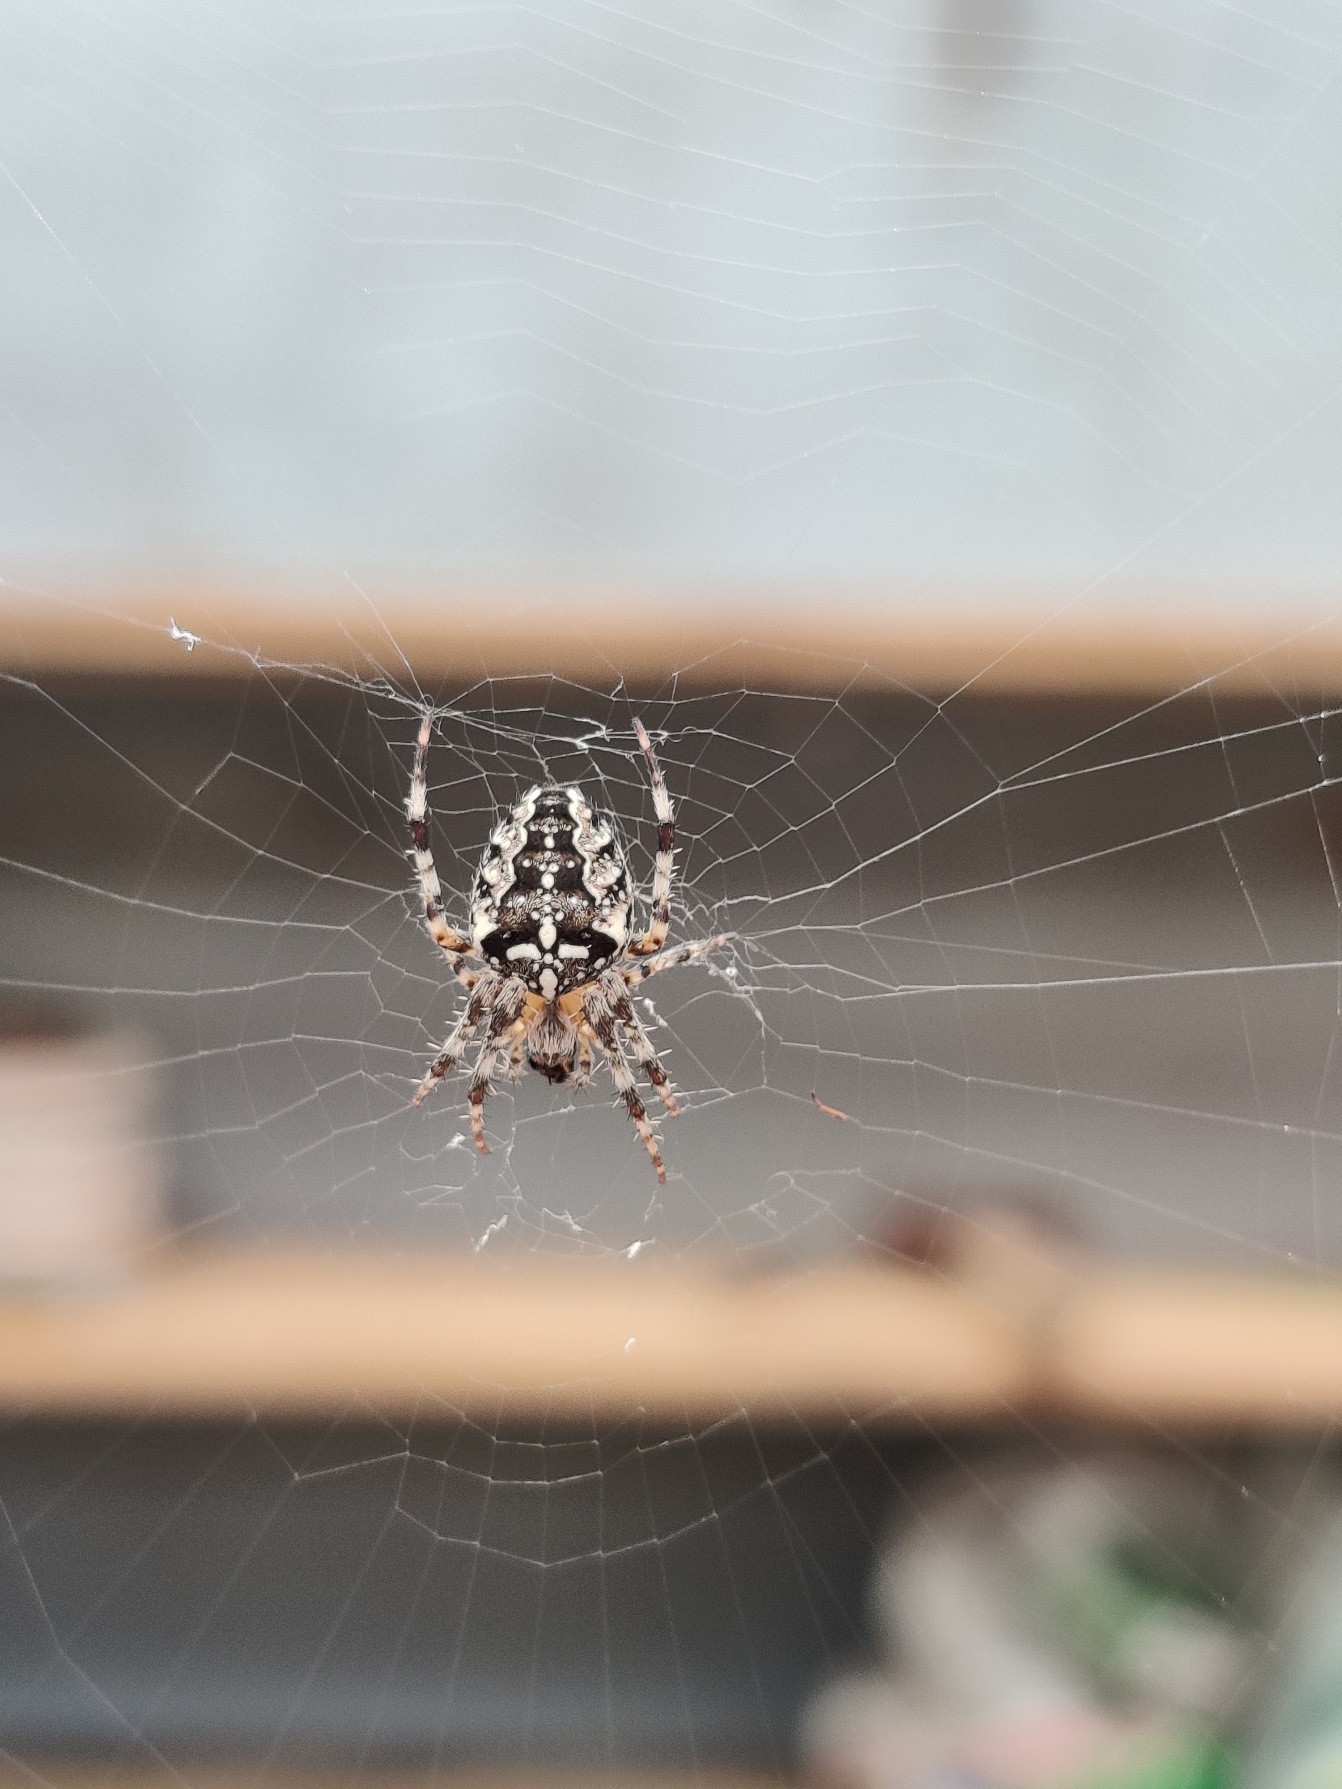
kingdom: Animalia
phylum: Arthropoda
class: Arachnida
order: Araneae
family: Araneidae
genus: Araneus
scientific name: Araneus diadematus
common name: Korsedderkop
